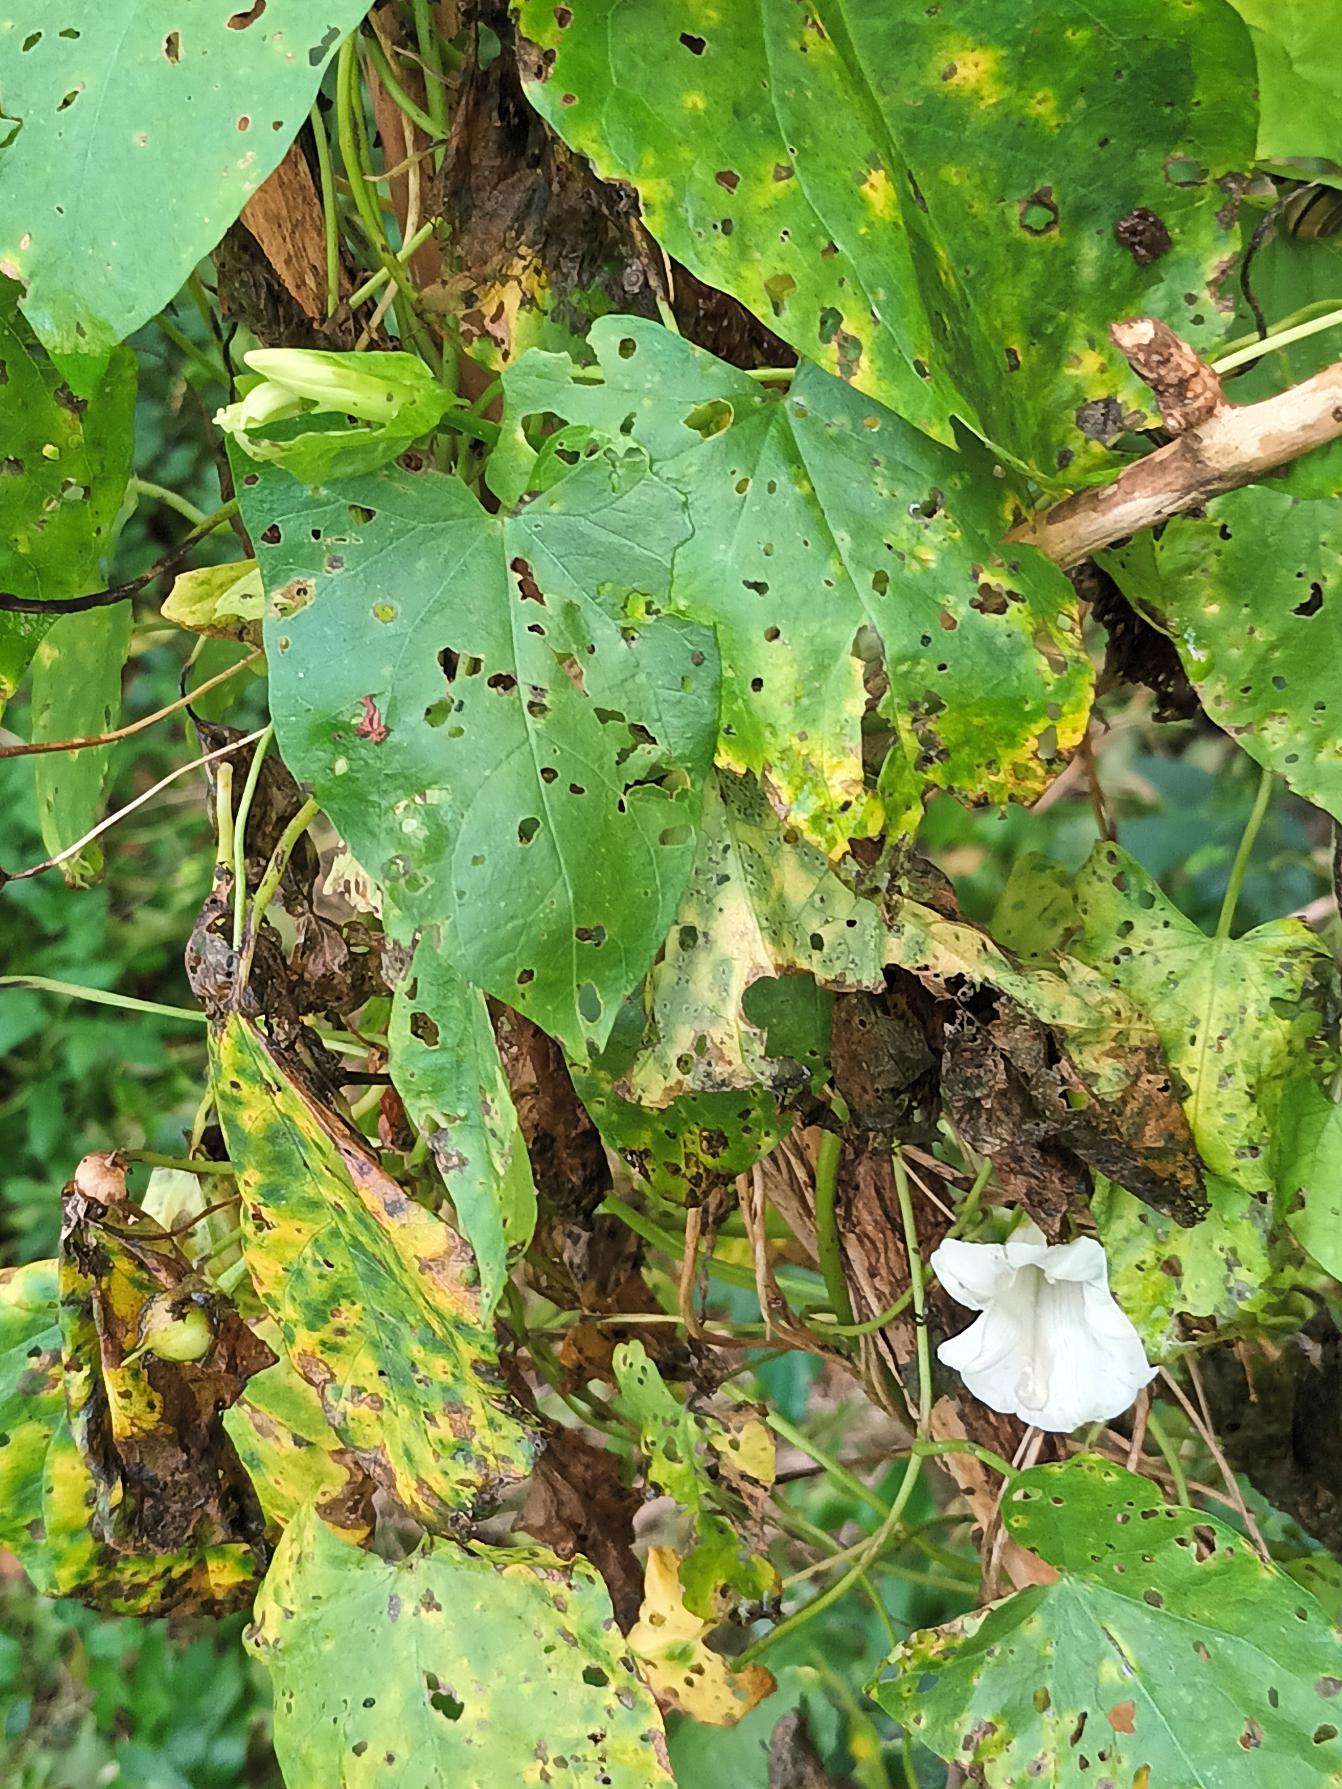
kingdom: Plantae
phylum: Tracheophyta
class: Magnoliopsida
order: Solanales
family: Convolvulaceae
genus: Calystegia
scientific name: Calystegia sepium
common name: Gærde-snerle
